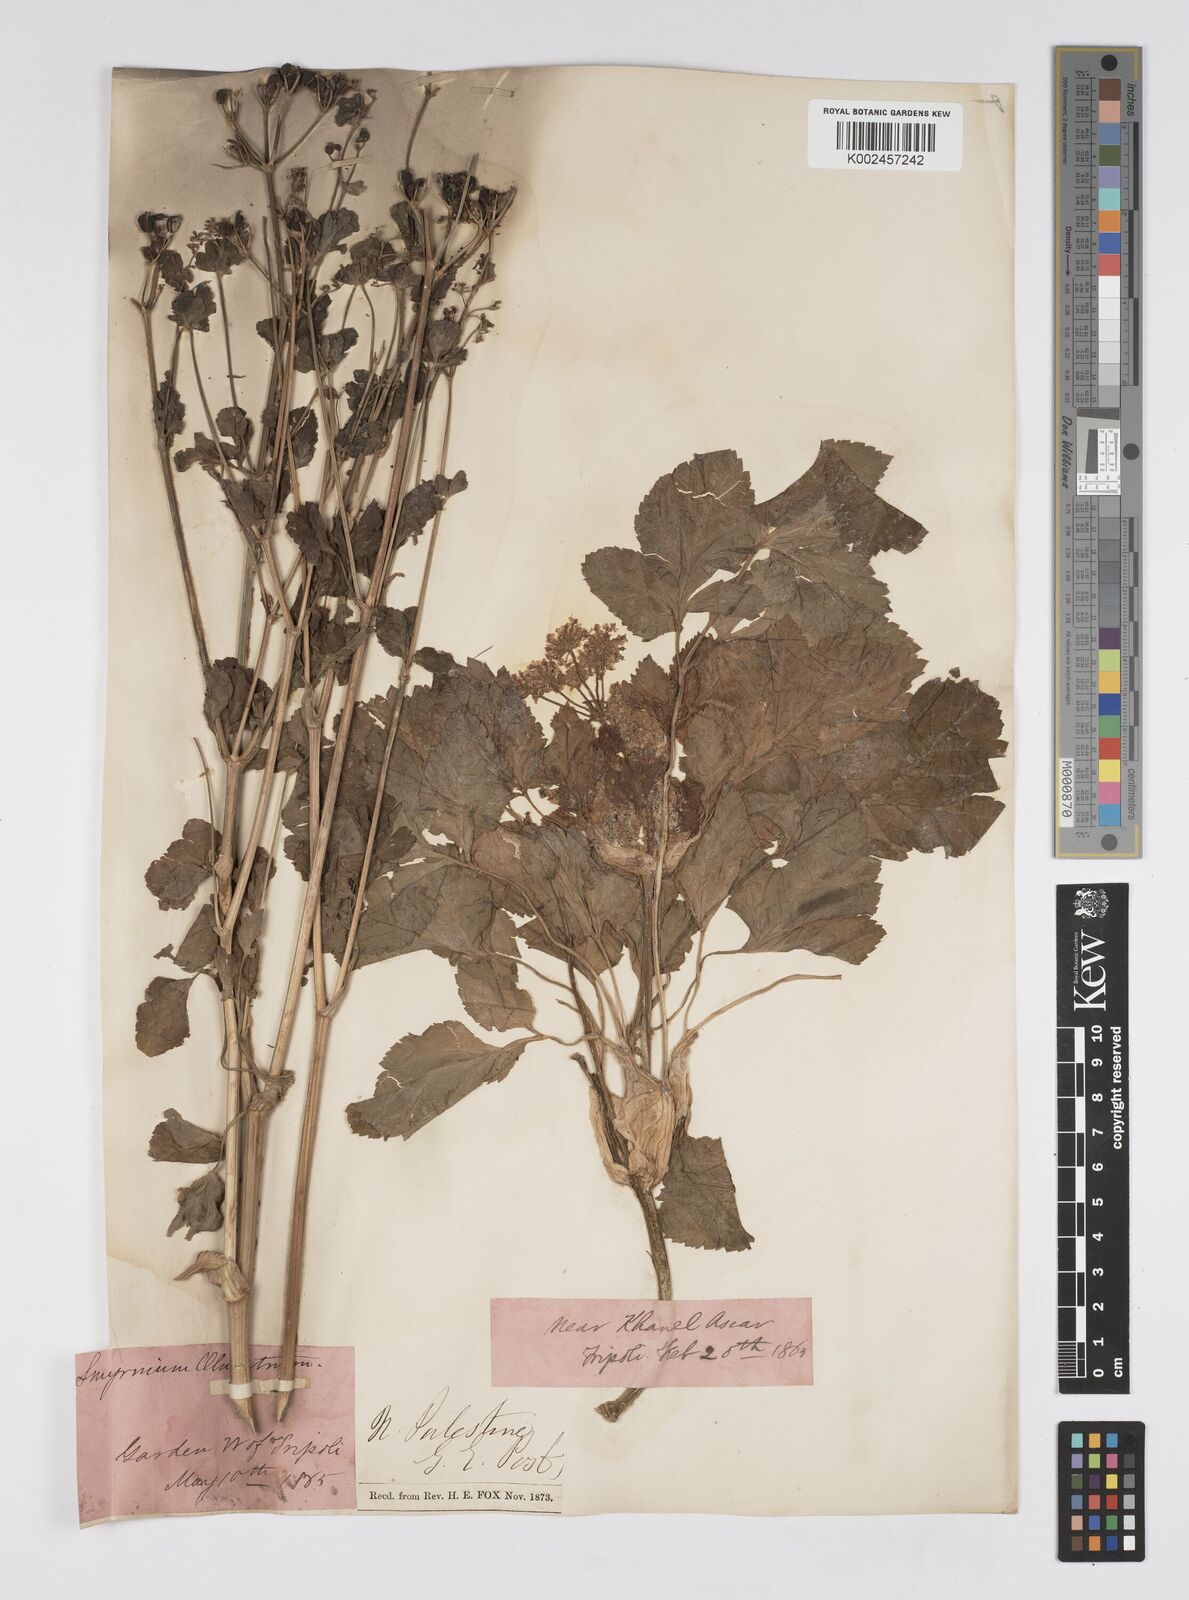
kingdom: Plantae
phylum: Tracheophyta
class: Magnoliopsida
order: Apiales
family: Apiaceae
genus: Smyrnium
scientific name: Smyrnium olusatrum
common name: Alexanders
